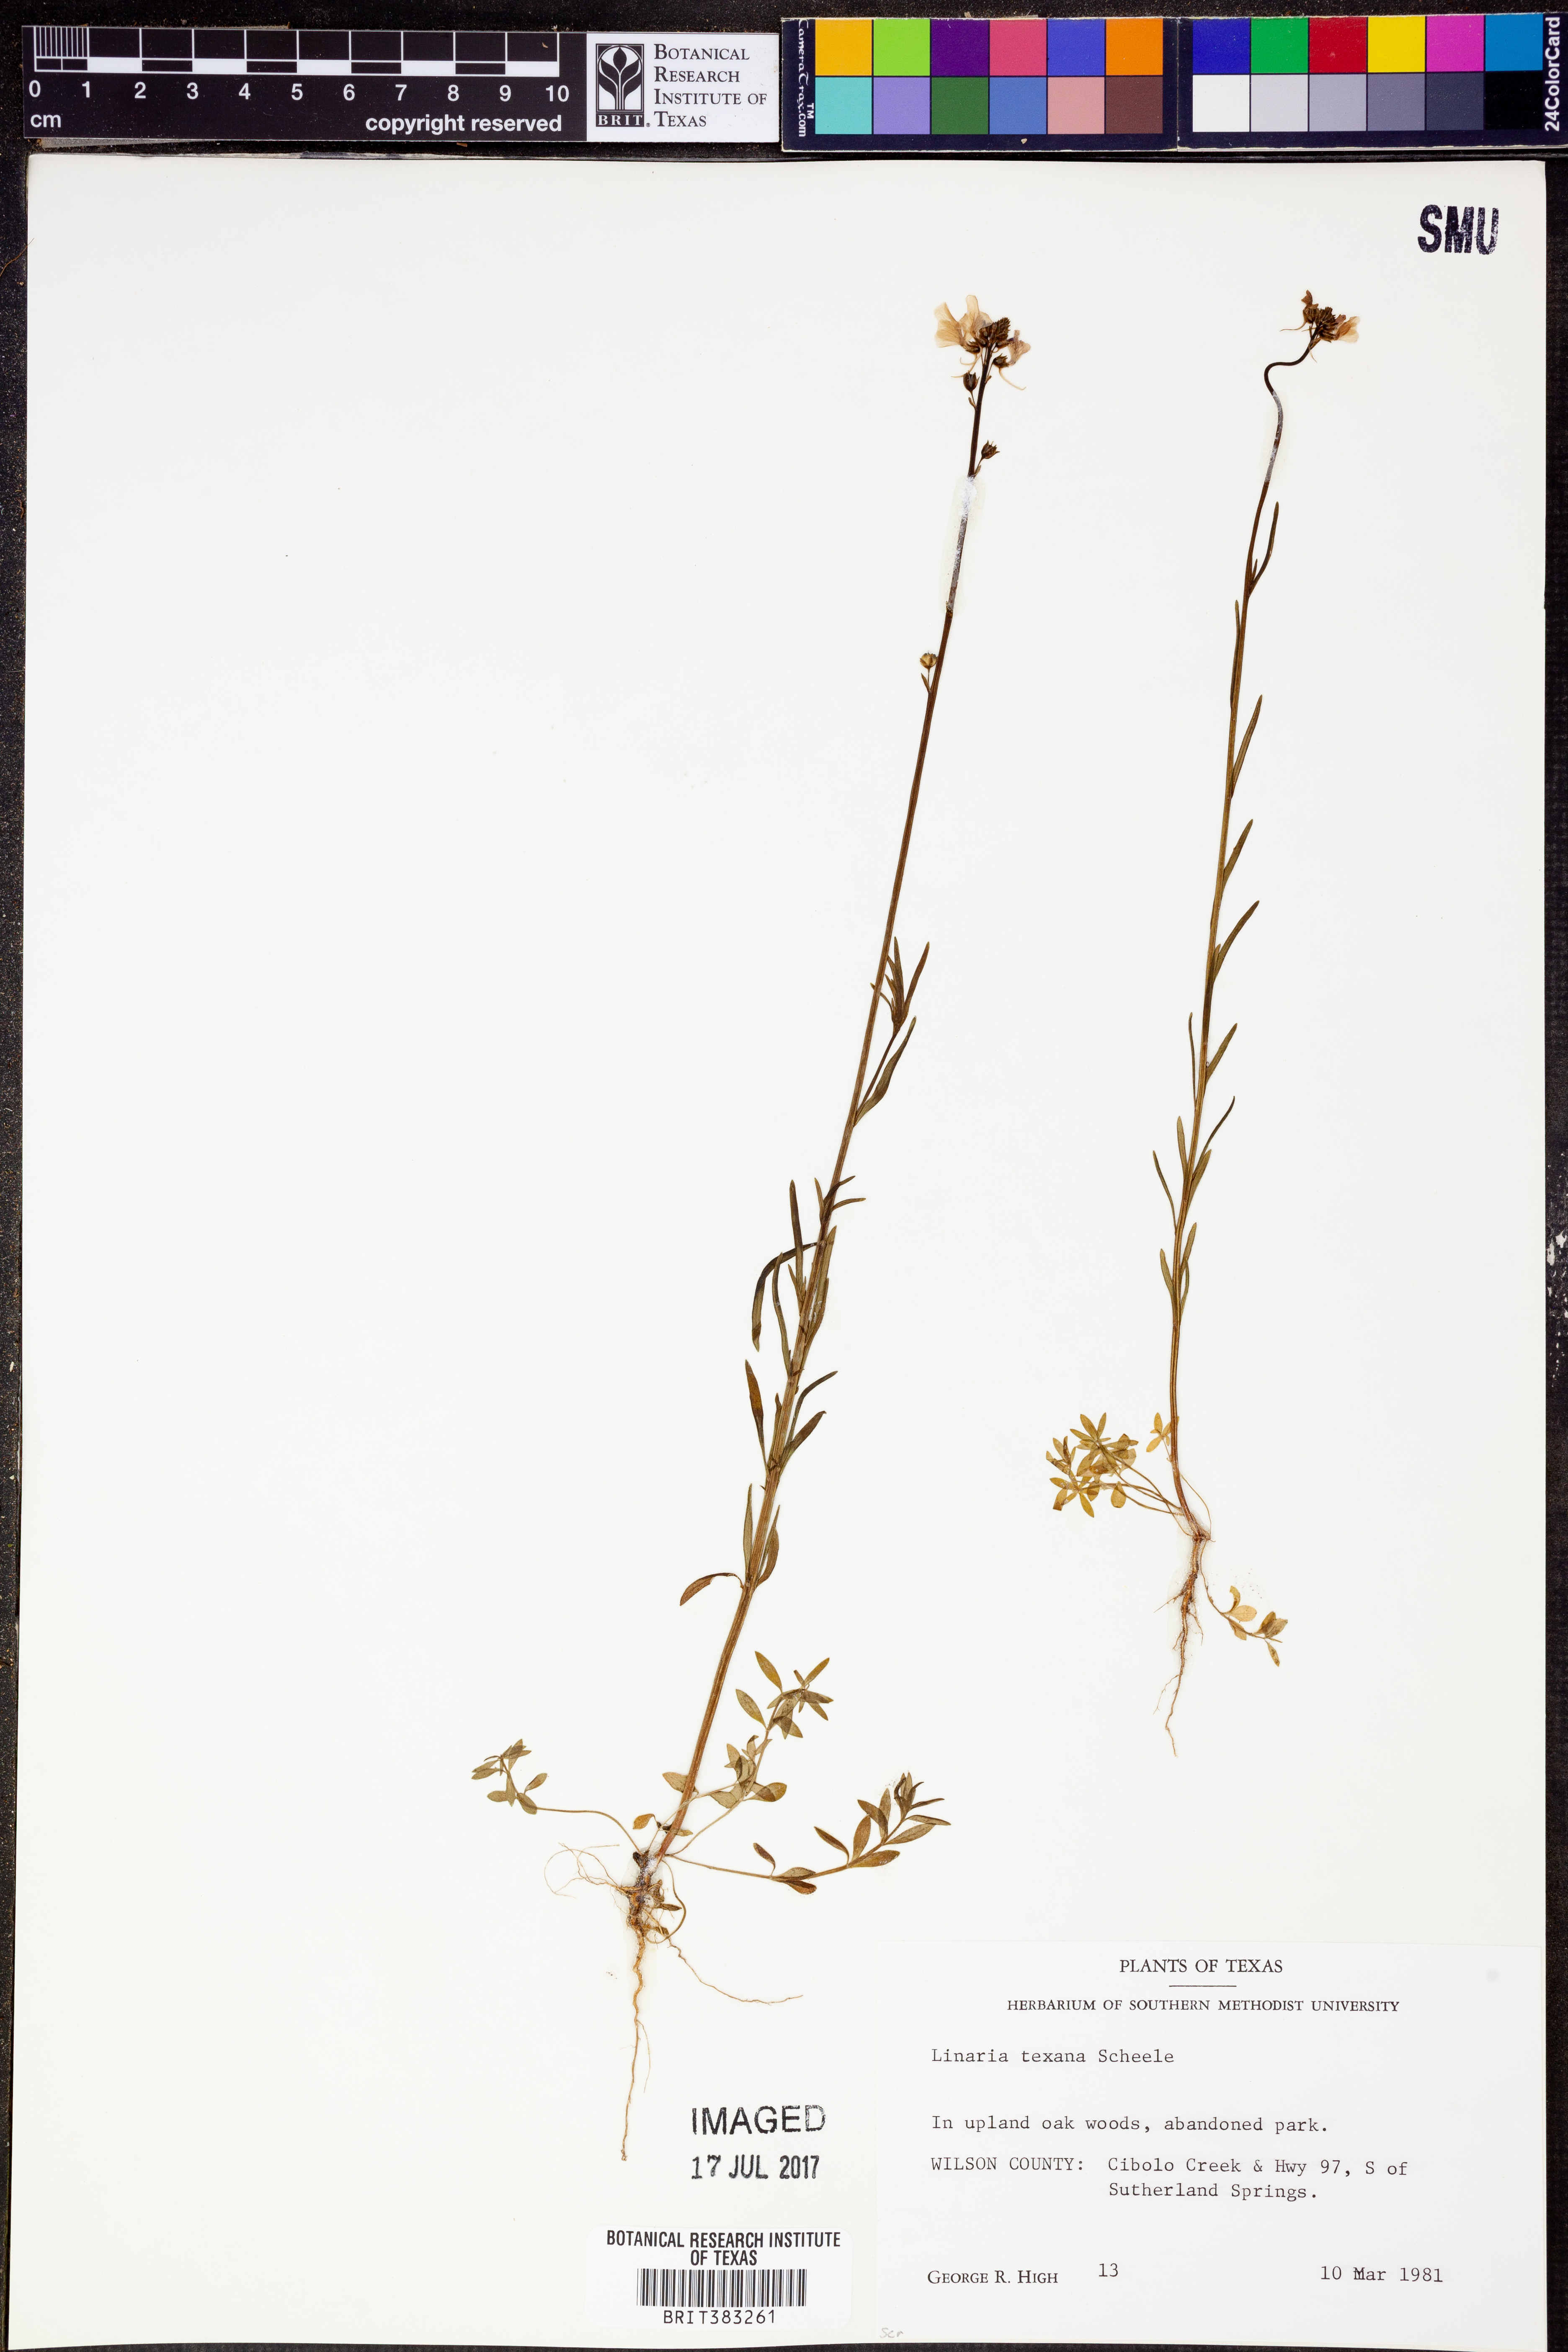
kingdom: Plantae
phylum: Tracheophyta
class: Magnoliopsida
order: Lamiales
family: Plantaginaceae
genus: Nuttallanthus
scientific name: Nuttallanthus texanus
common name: Texas toadflax
